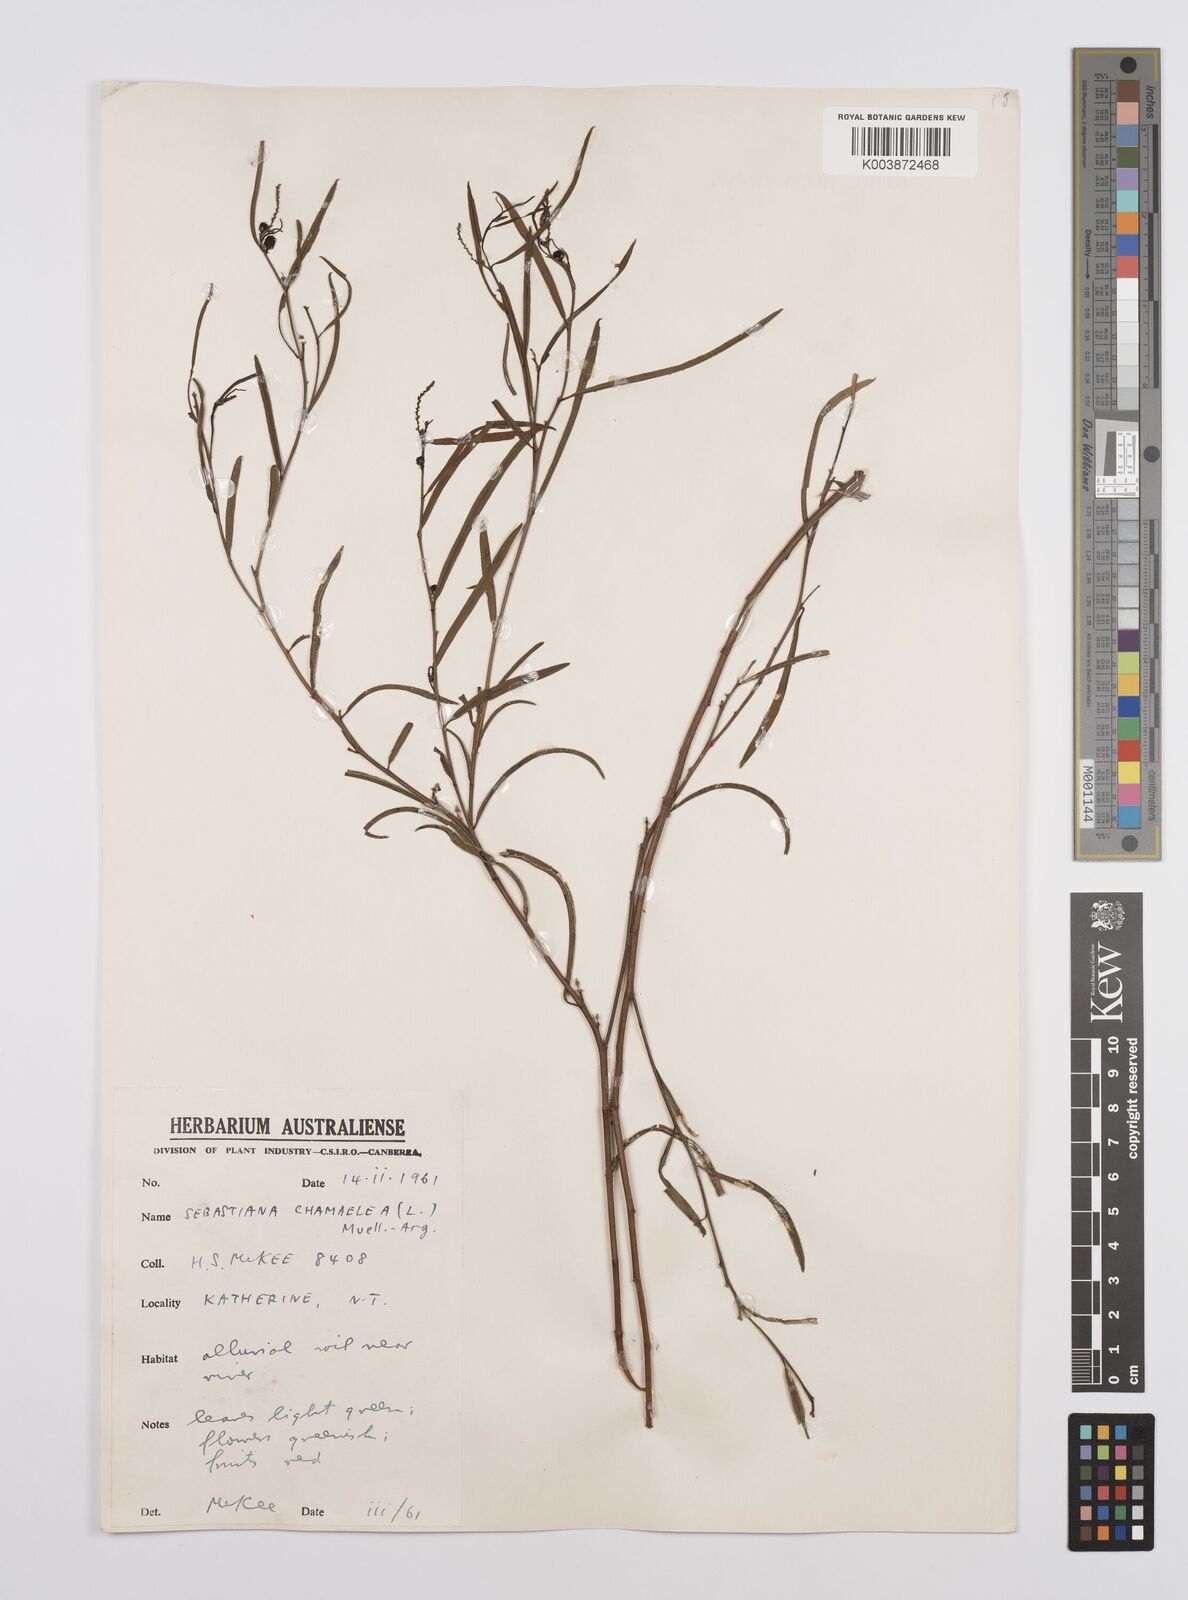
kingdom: Plantae
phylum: Tracheophyta
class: Magnoliopsida
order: Malpighiales
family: Euphorbiaceae
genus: Microstachys
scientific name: Microstachys chamaelea
